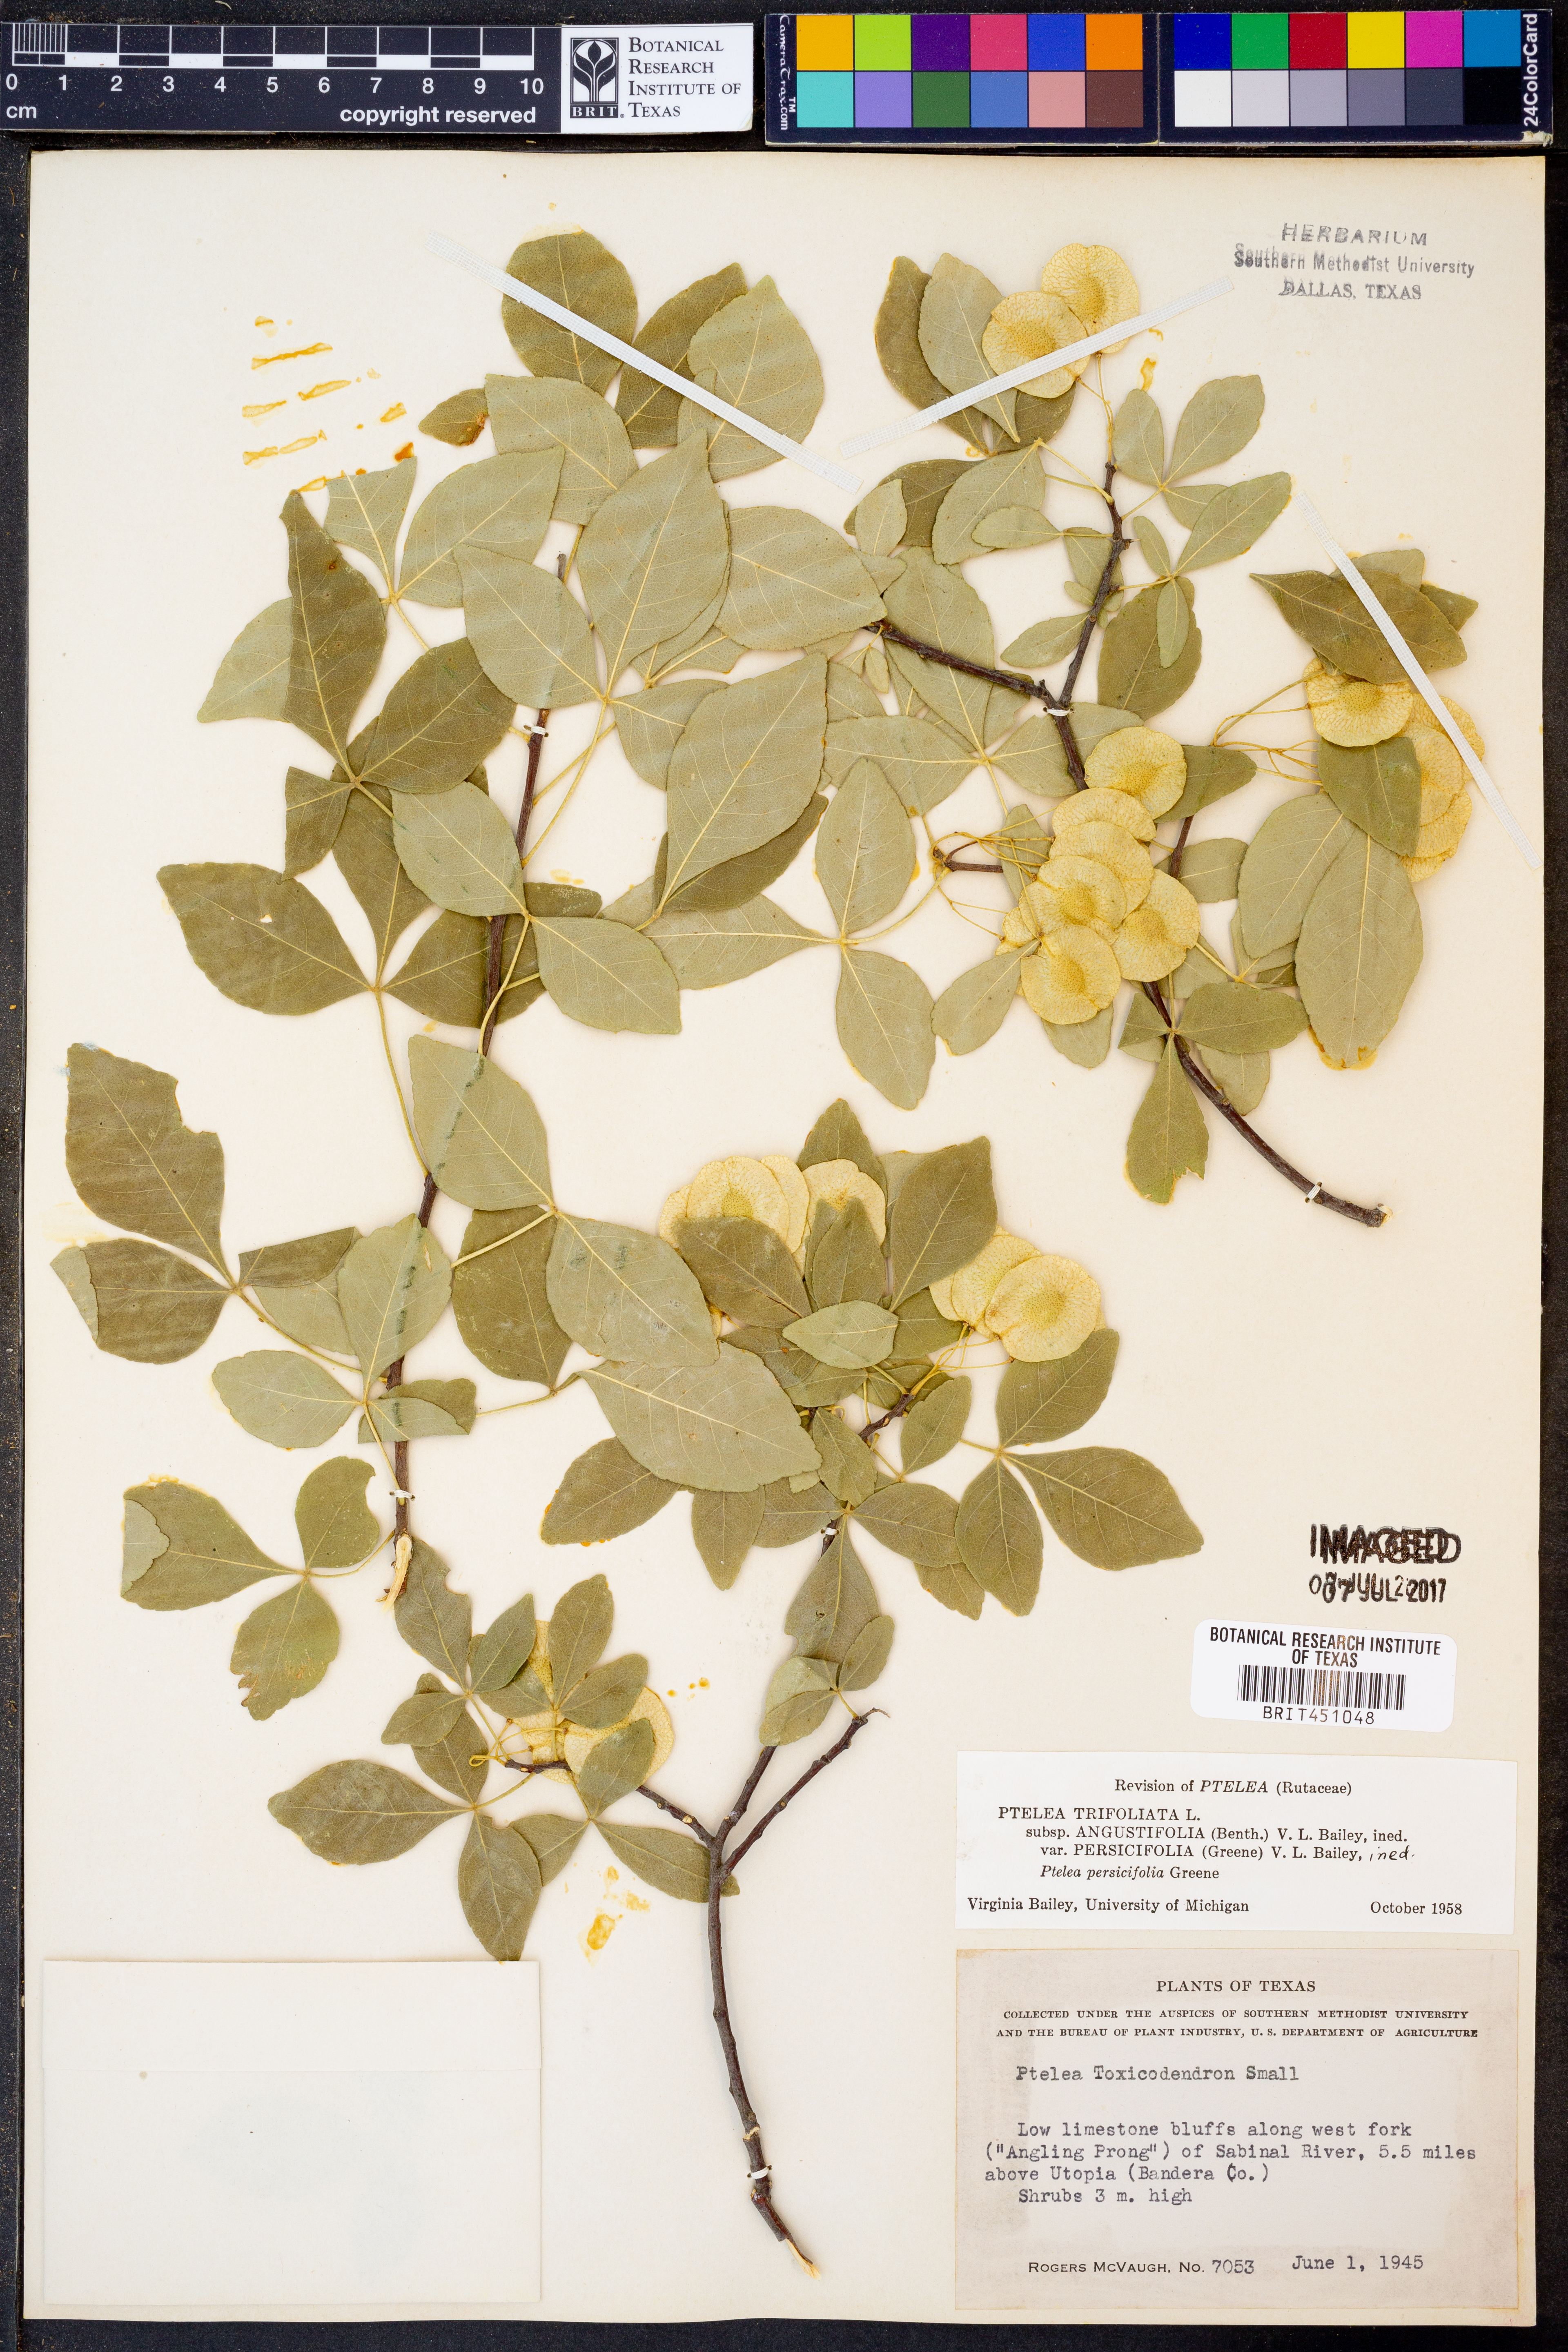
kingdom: Plantae
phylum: Tracheophyta
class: Magnoliopsida
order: Sapindales
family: Rutaceae
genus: Ptelea
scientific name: Ptelea trifoliata
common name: Common hop-tree
